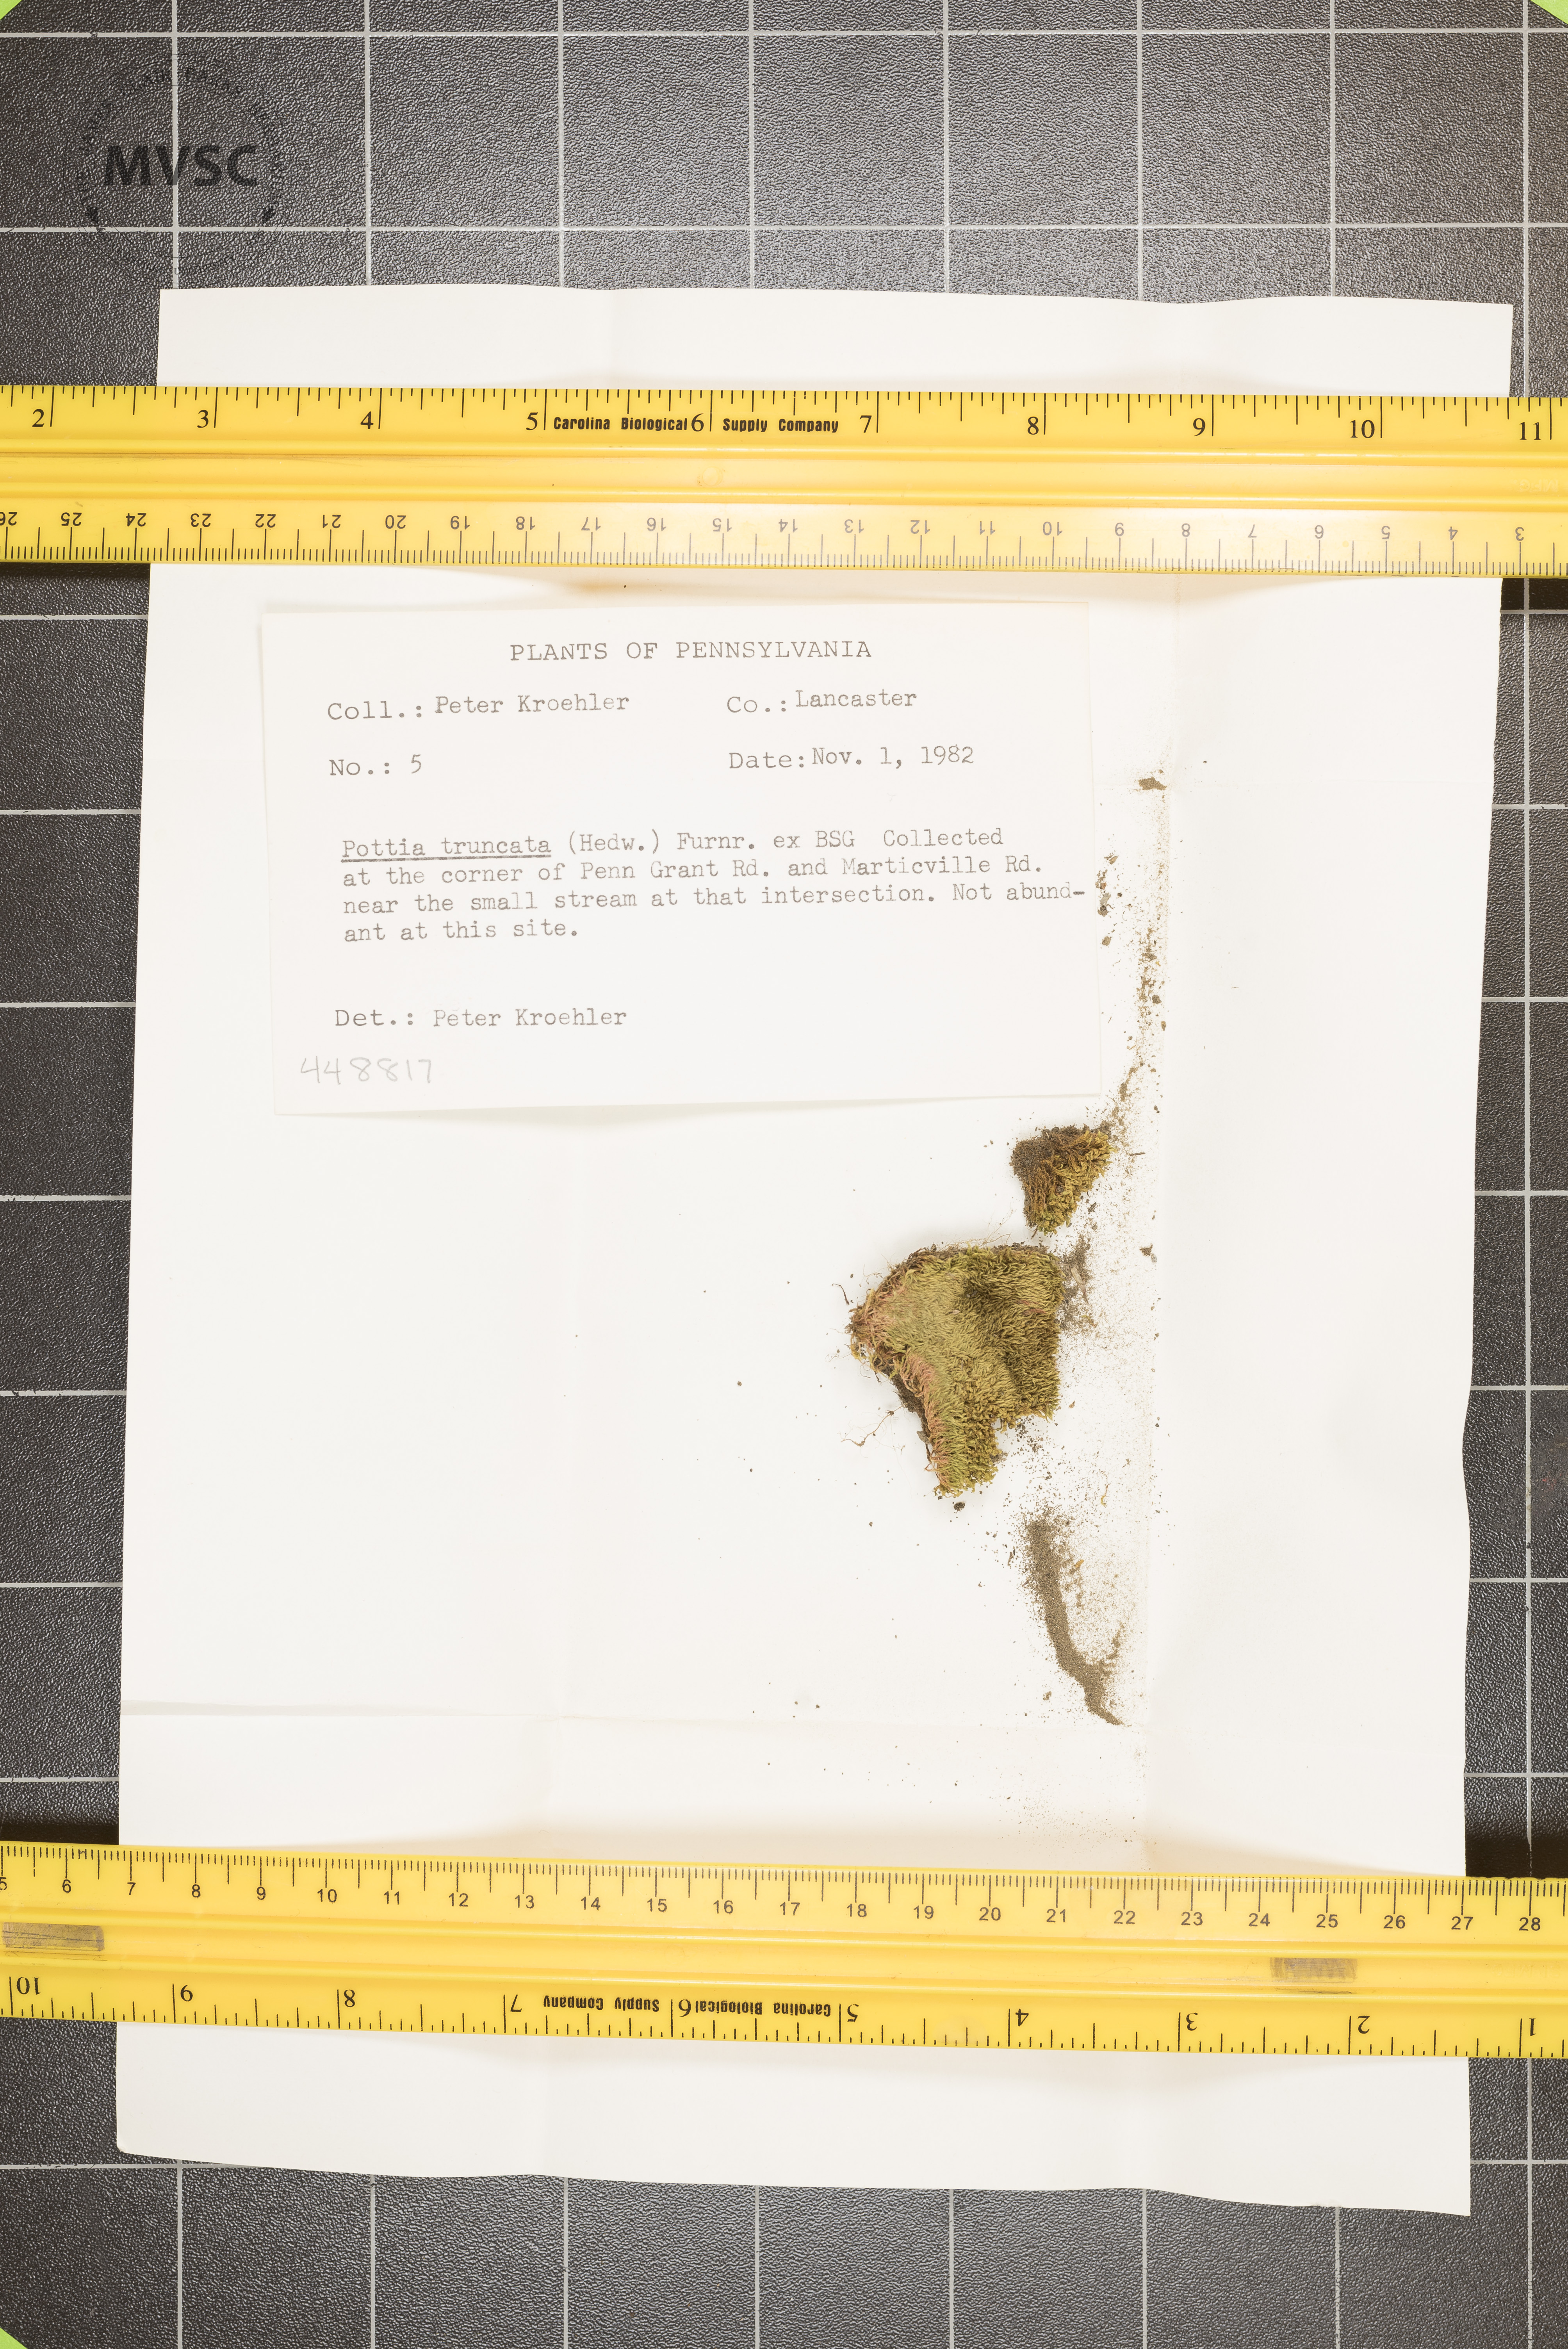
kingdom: Plantae
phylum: Bryophyta
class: Bryopsida
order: Pottiales
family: Pottiaceae
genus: Tortula
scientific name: Tortula truncata
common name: Truncated screw moss
